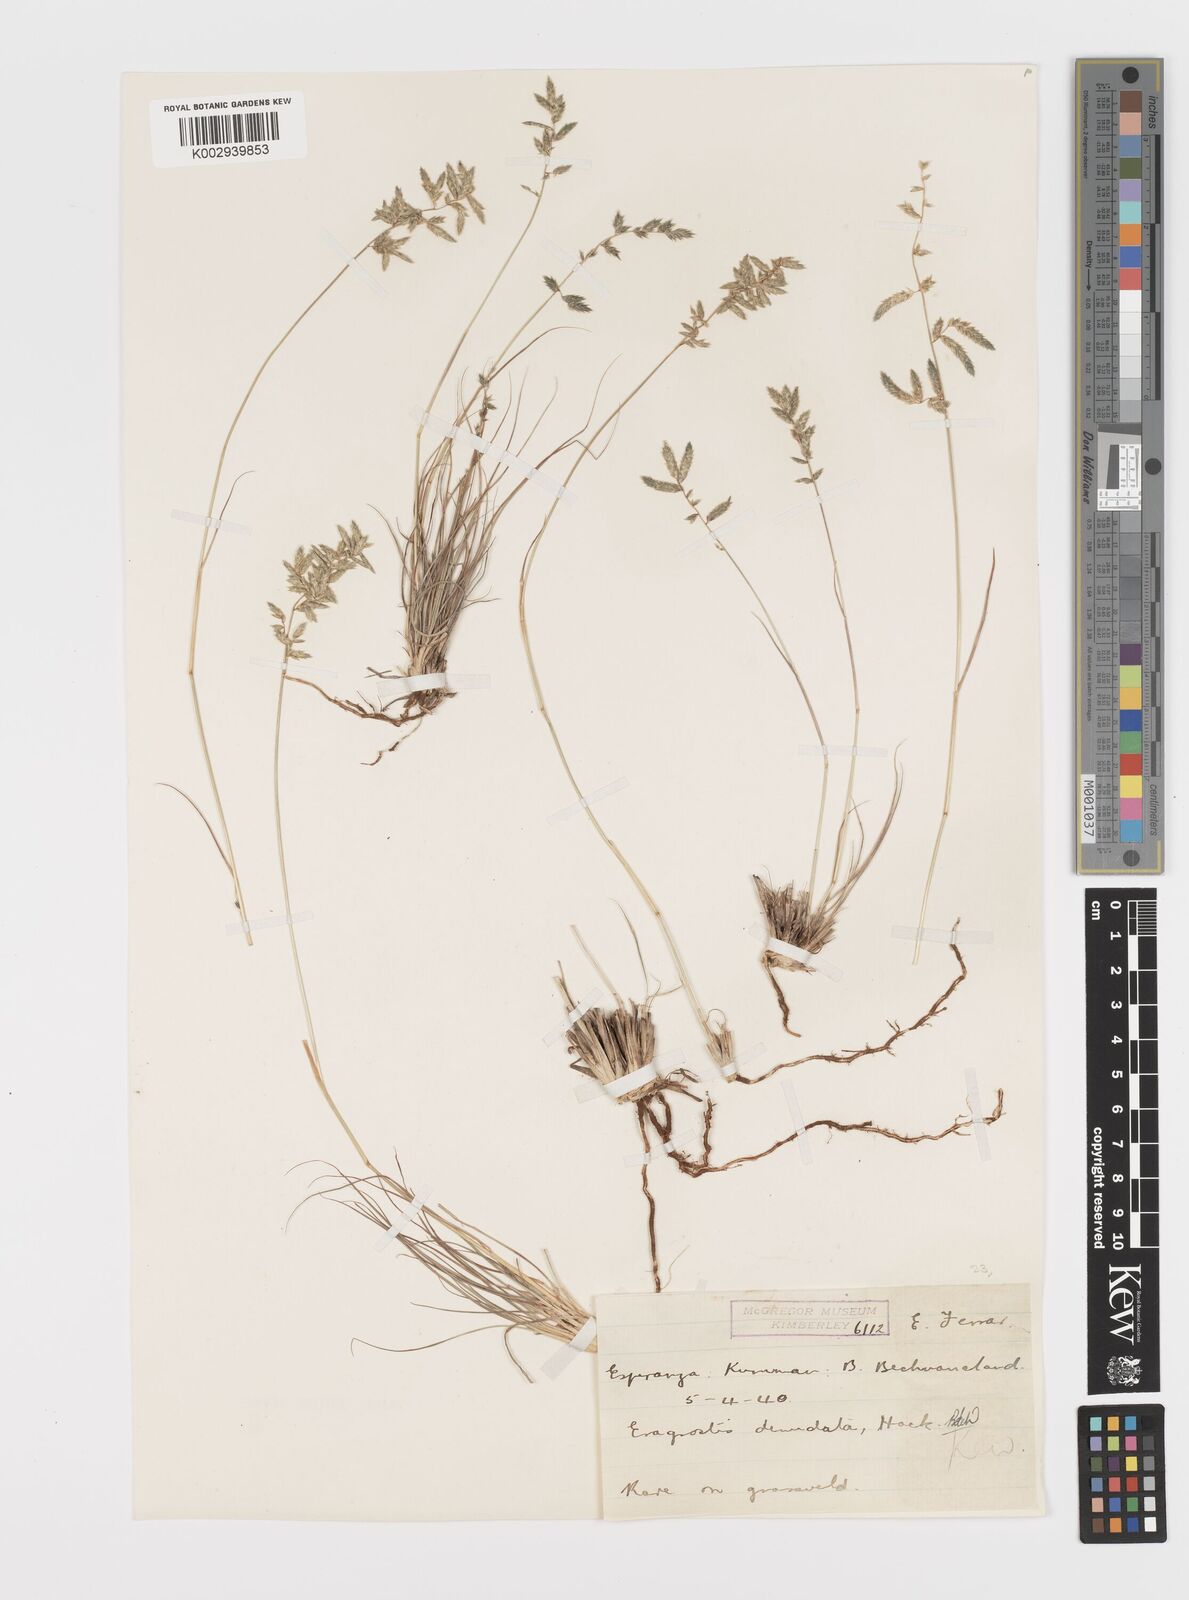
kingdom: Plantae
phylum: Tracheophyta
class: Liliopsida
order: Poales
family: Poaceae
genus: Eragrostis
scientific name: Eragrostis nindensis
